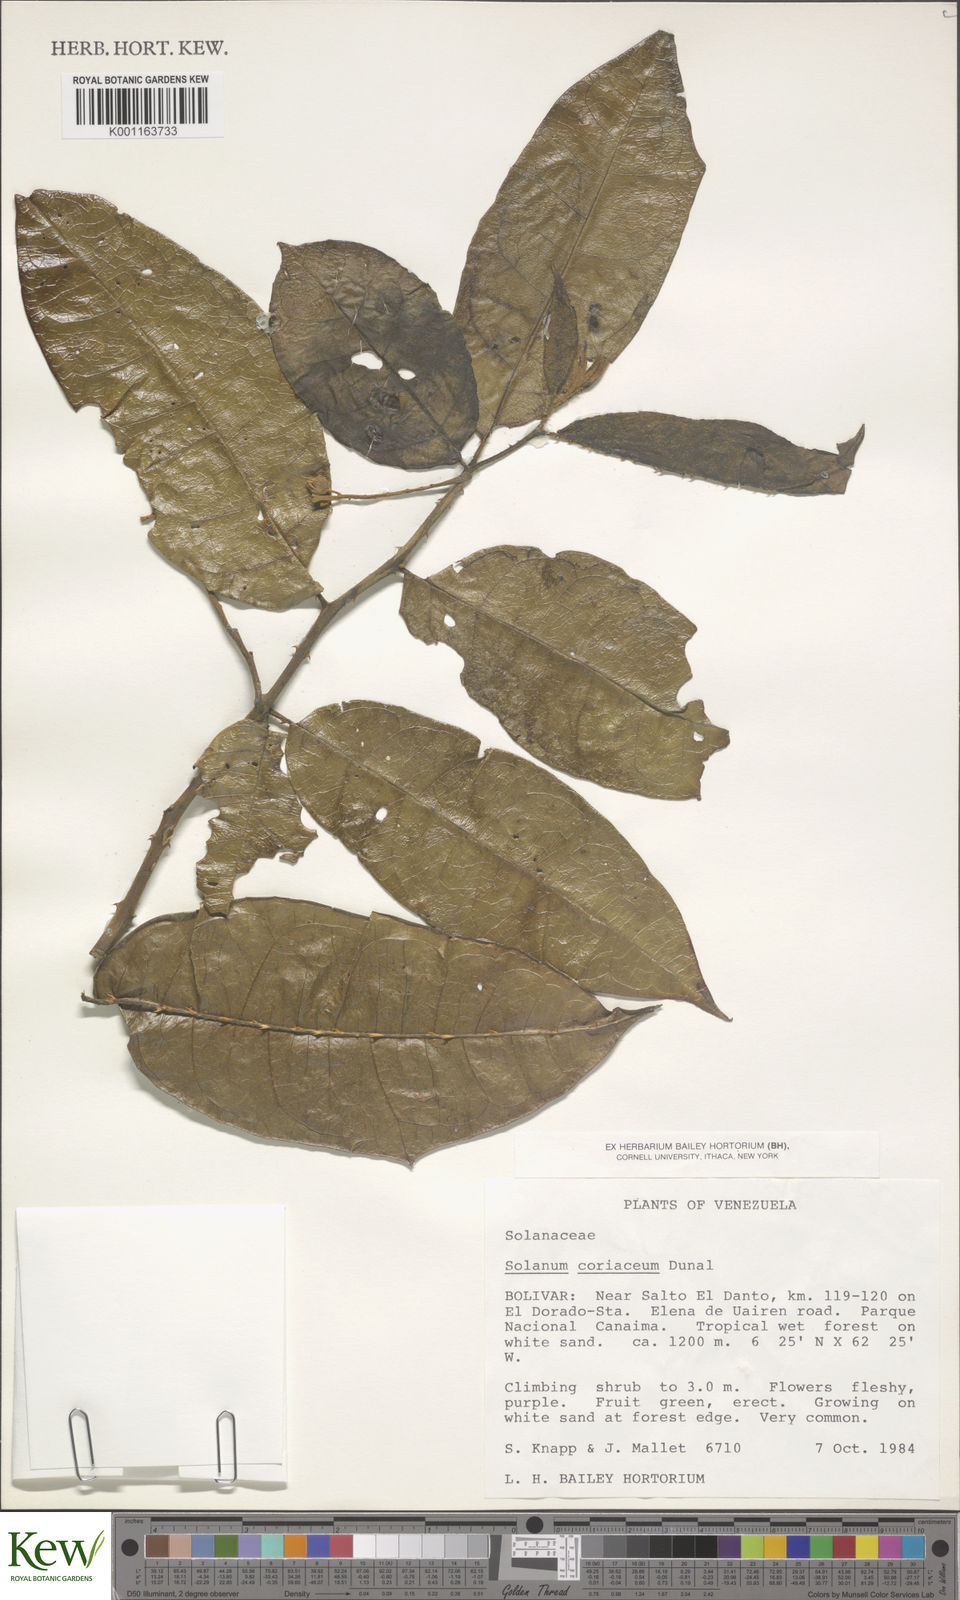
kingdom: Plantae
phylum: Tracheophyta
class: Magnoliopsida
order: Solanales
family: Solanaceae
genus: Solanum
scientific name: Solanum coriaceum
